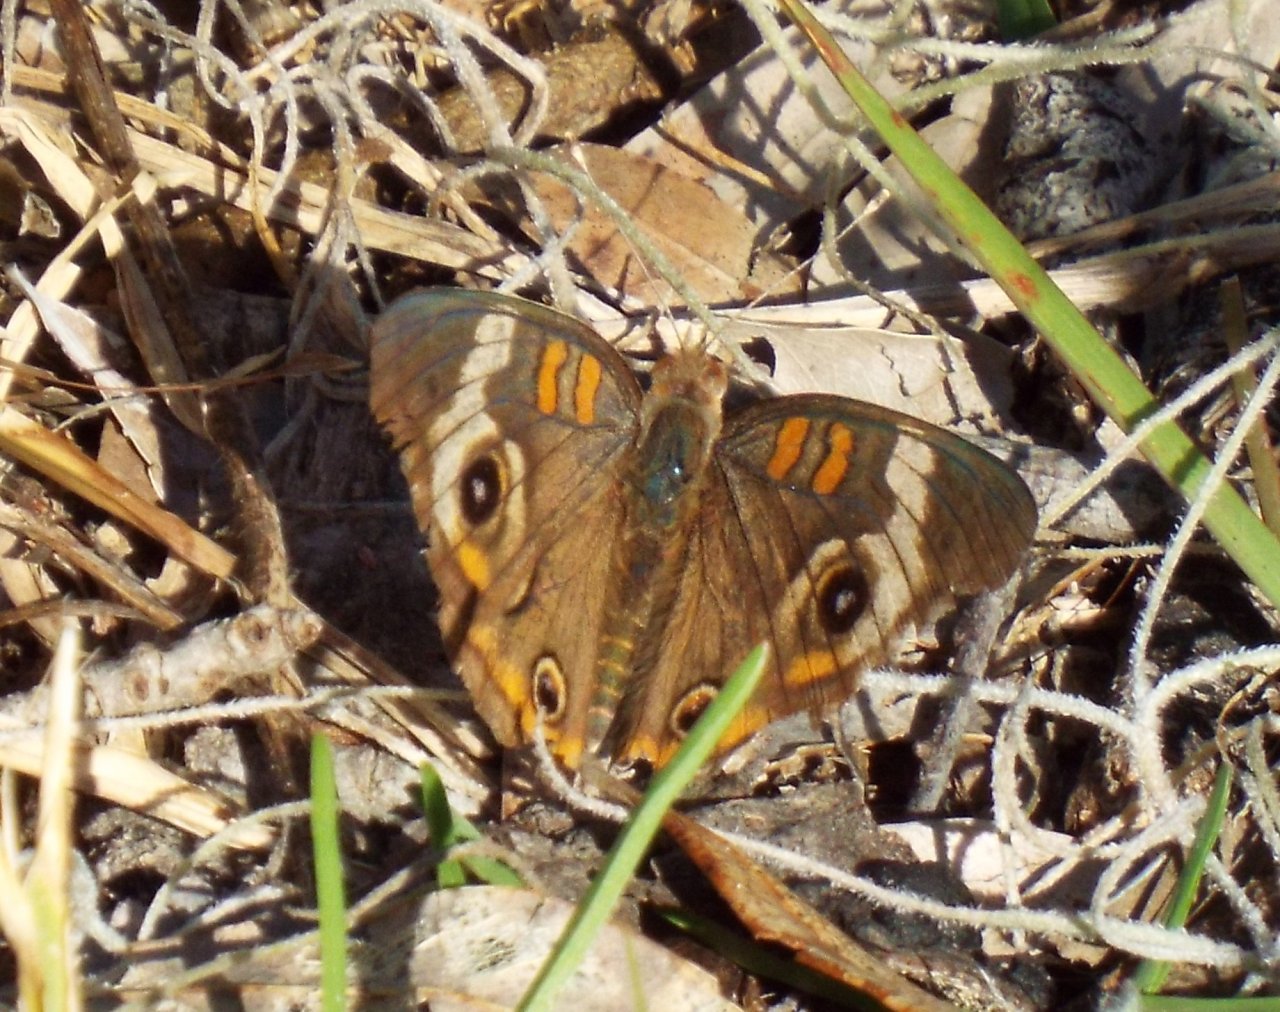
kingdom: Animalia
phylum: Arthropoda
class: Insecta
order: Lepidoptera
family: Nymphalidae
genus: Junonia
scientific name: Junonia coenia
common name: Common Buckeye
